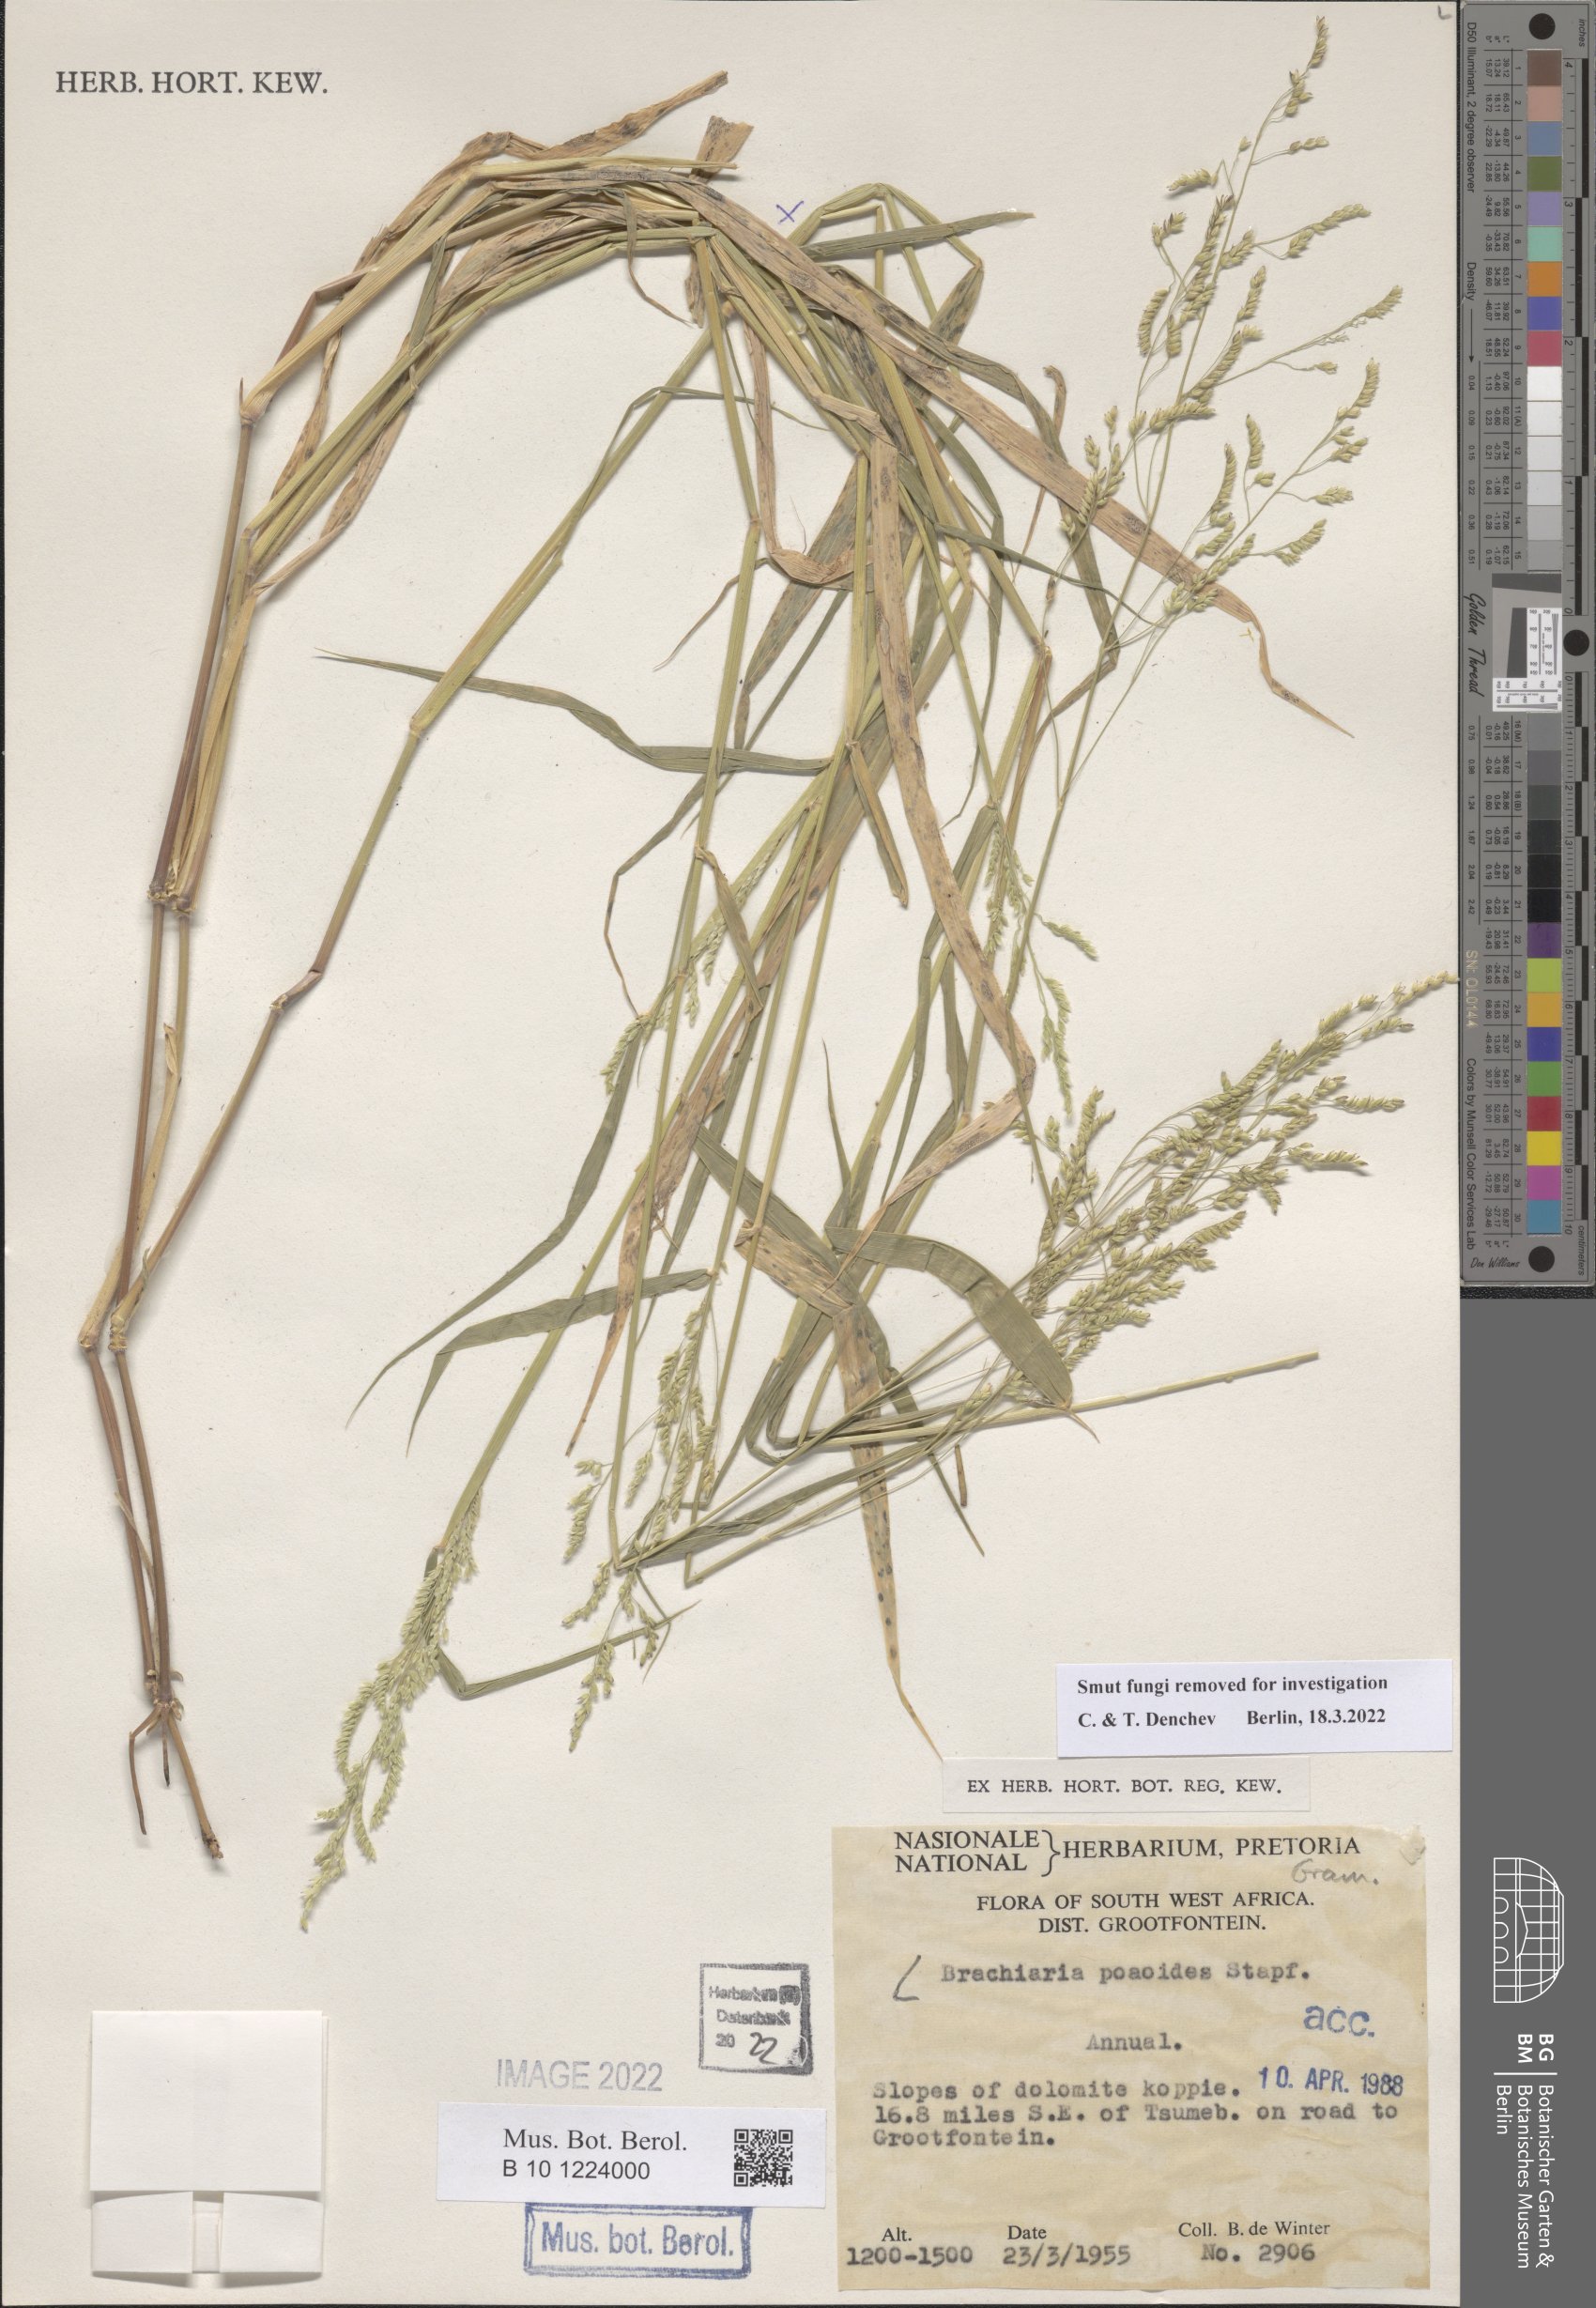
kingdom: Plantae
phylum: Tracheophyta
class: Liliopsida
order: Poales
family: Poaceae
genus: Brachiaria
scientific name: Brachiaria
